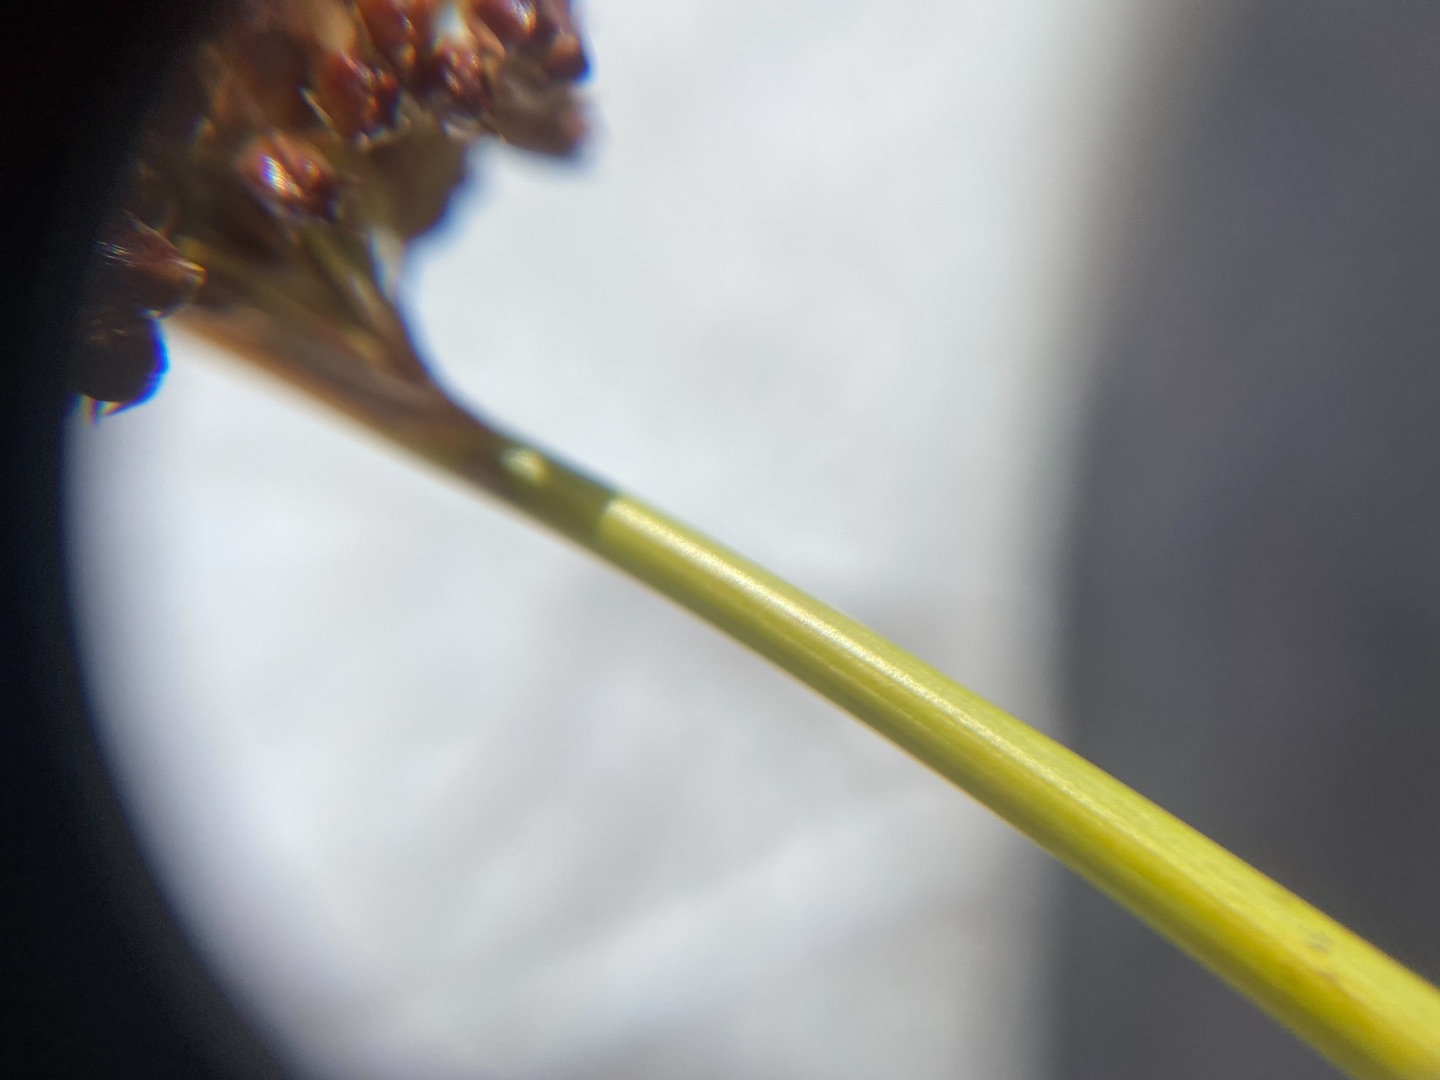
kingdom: Plantae
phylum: Tracheophyta
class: Liliopsida
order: Poales
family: Juncaceae
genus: Juncus
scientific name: Juncus effusus
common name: Lyse-siv
